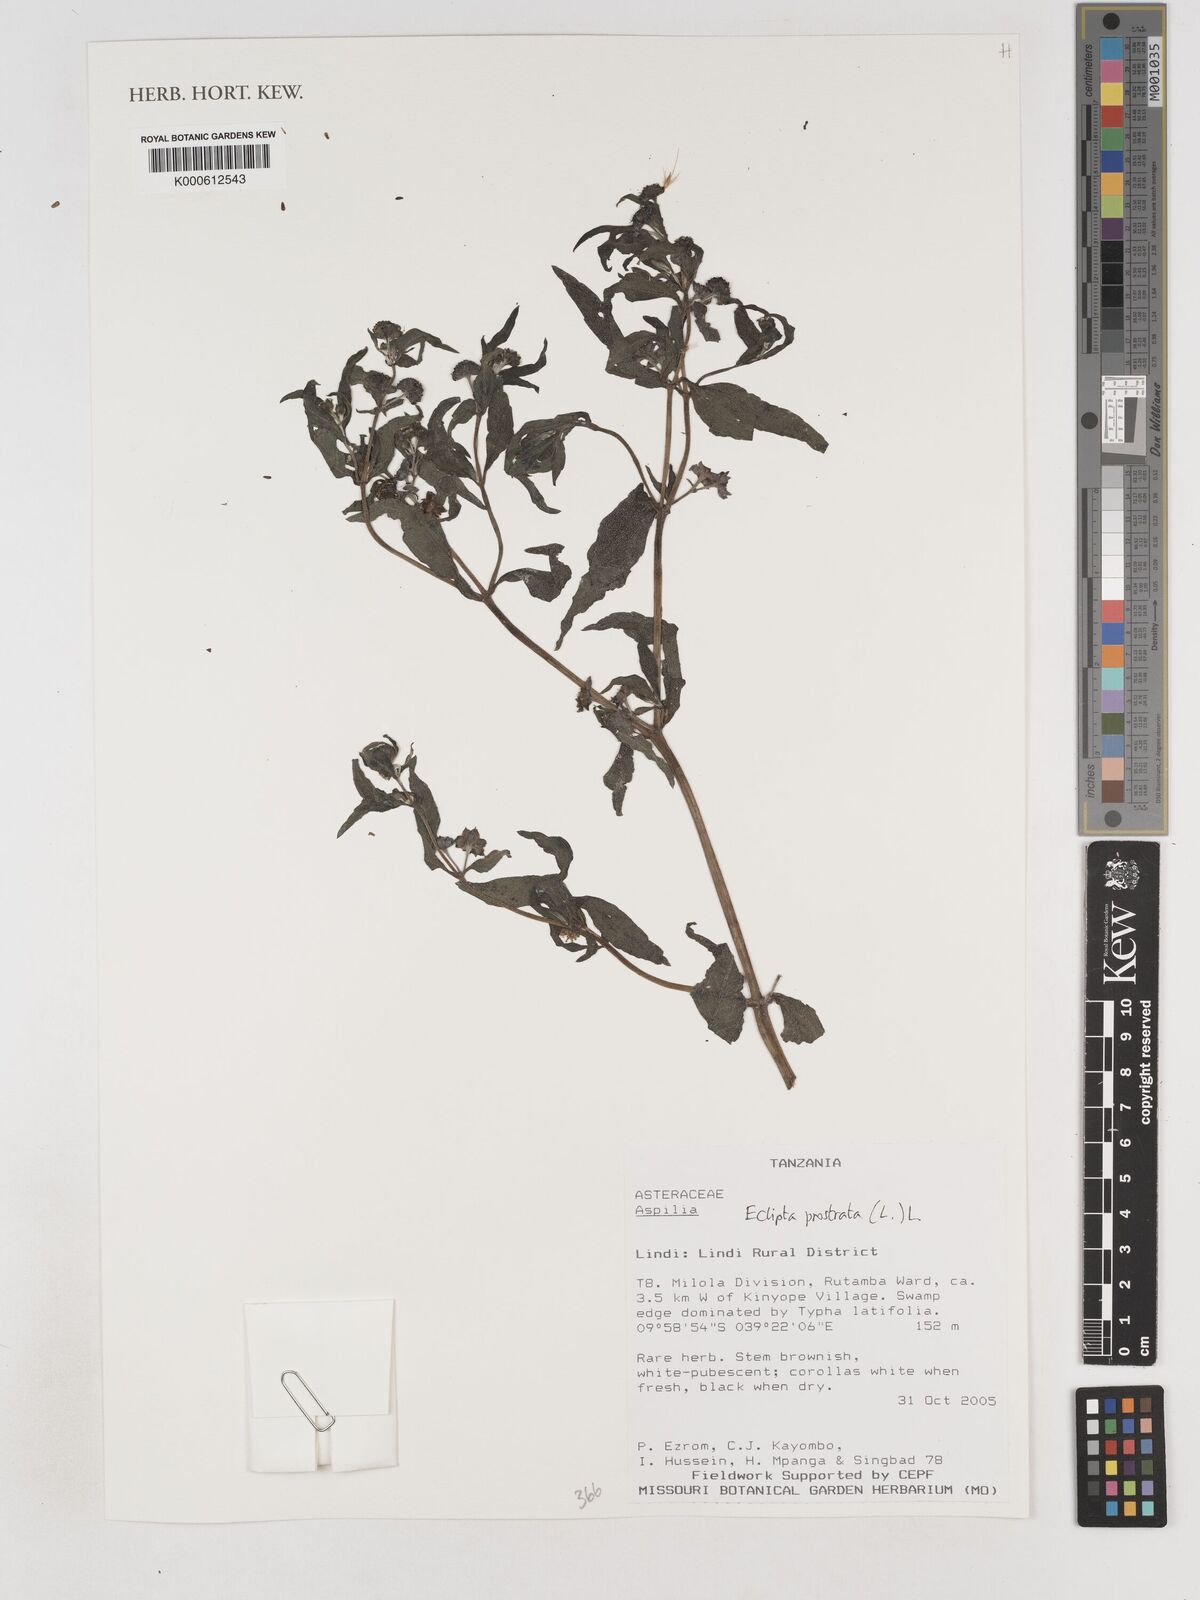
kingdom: Plantae
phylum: Tracheophyta
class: Magnoliopsida
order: Asterales
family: Asteraceae
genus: Eclipta
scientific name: Eclipta prostrata
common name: False daisy
